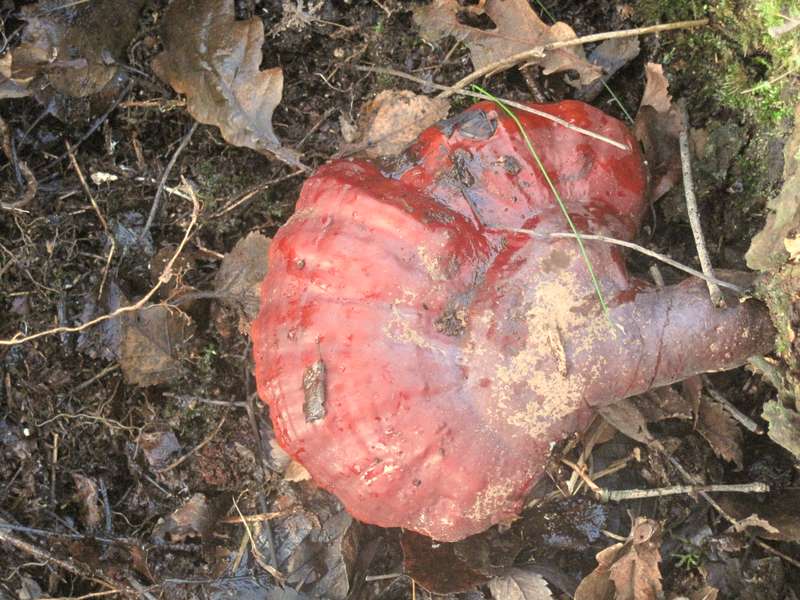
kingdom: Fungi
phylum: Basidiomycota
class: Agaricomycetes
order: Polyporales
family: Polyporaceae
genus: Ganoderma
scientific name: Ganoderma lucidum
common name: skinnende lakporesvamp
